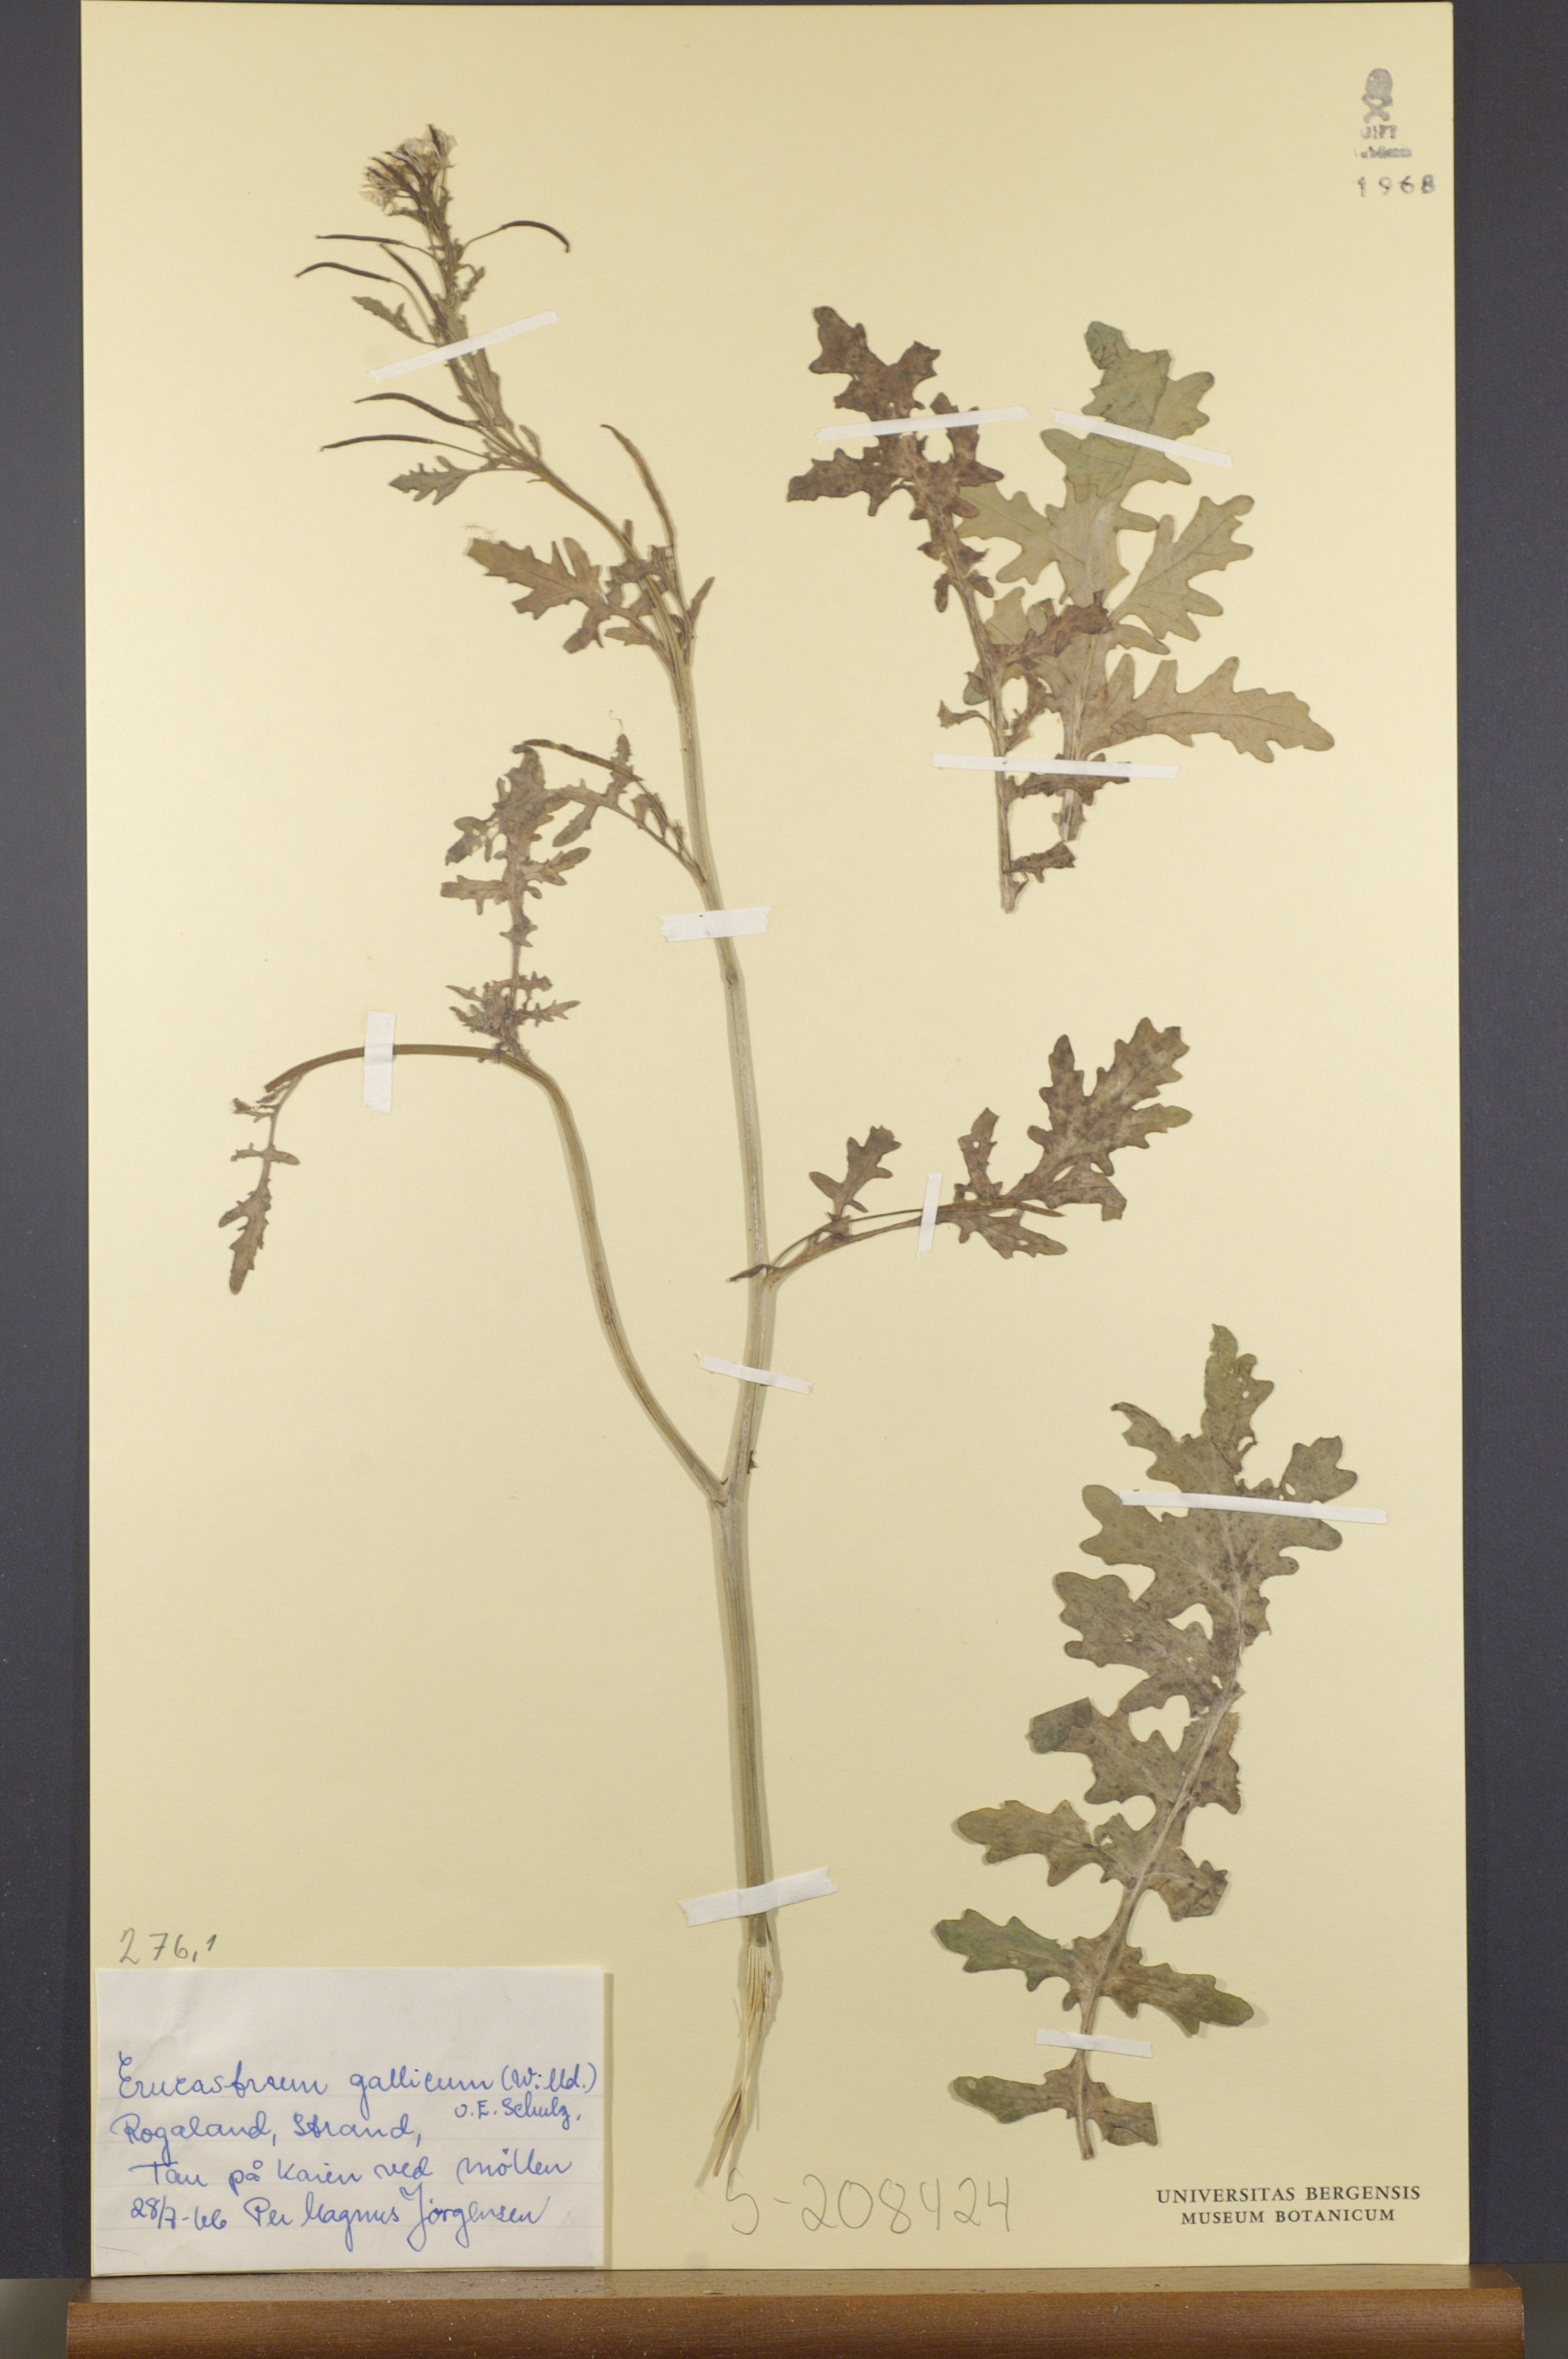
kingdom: Plantae
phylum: Tracheophyta
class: Magnoliopsida
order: Brassicales
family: Brassicaceae
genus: Erucastrum
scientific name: Erucastrum gallicum
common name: Hairy rocket
